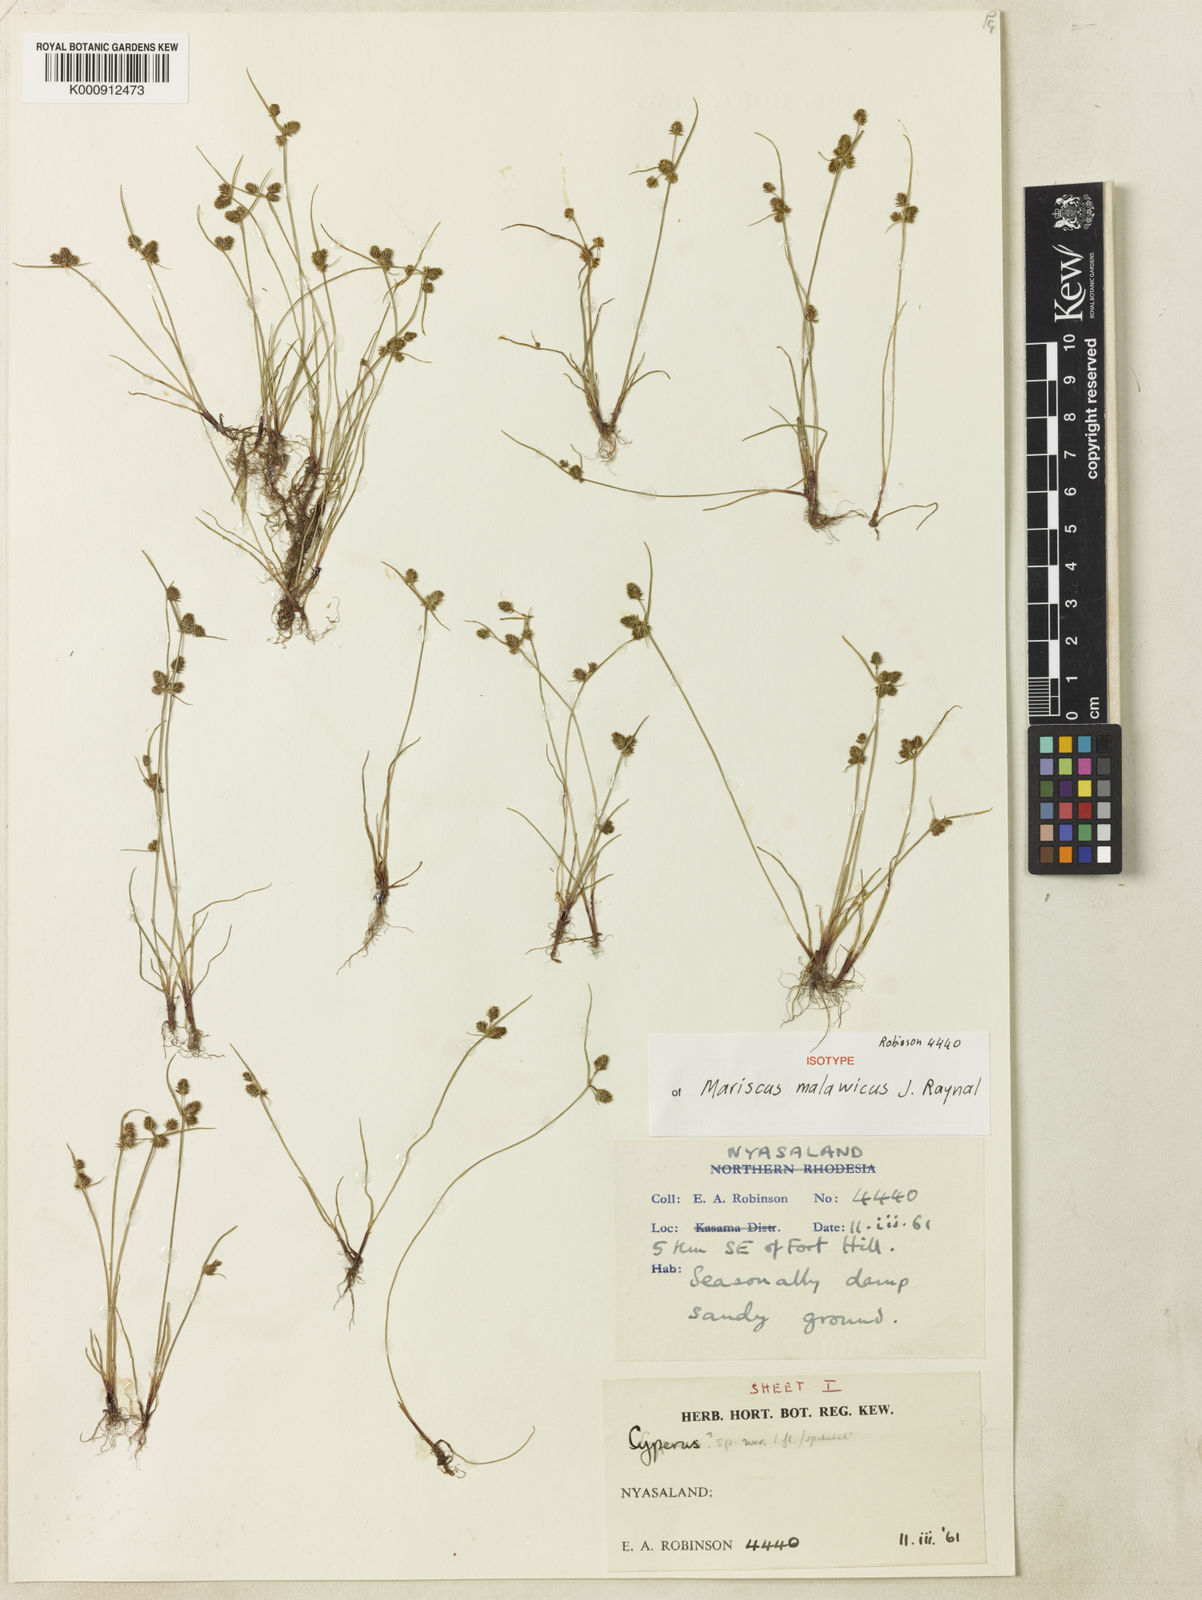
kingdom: Plantae
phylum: Tracheophyta
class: Liliopsida
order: Poales
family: Cyperaceae
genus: Cyperus
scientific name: Cyperus malawicus
